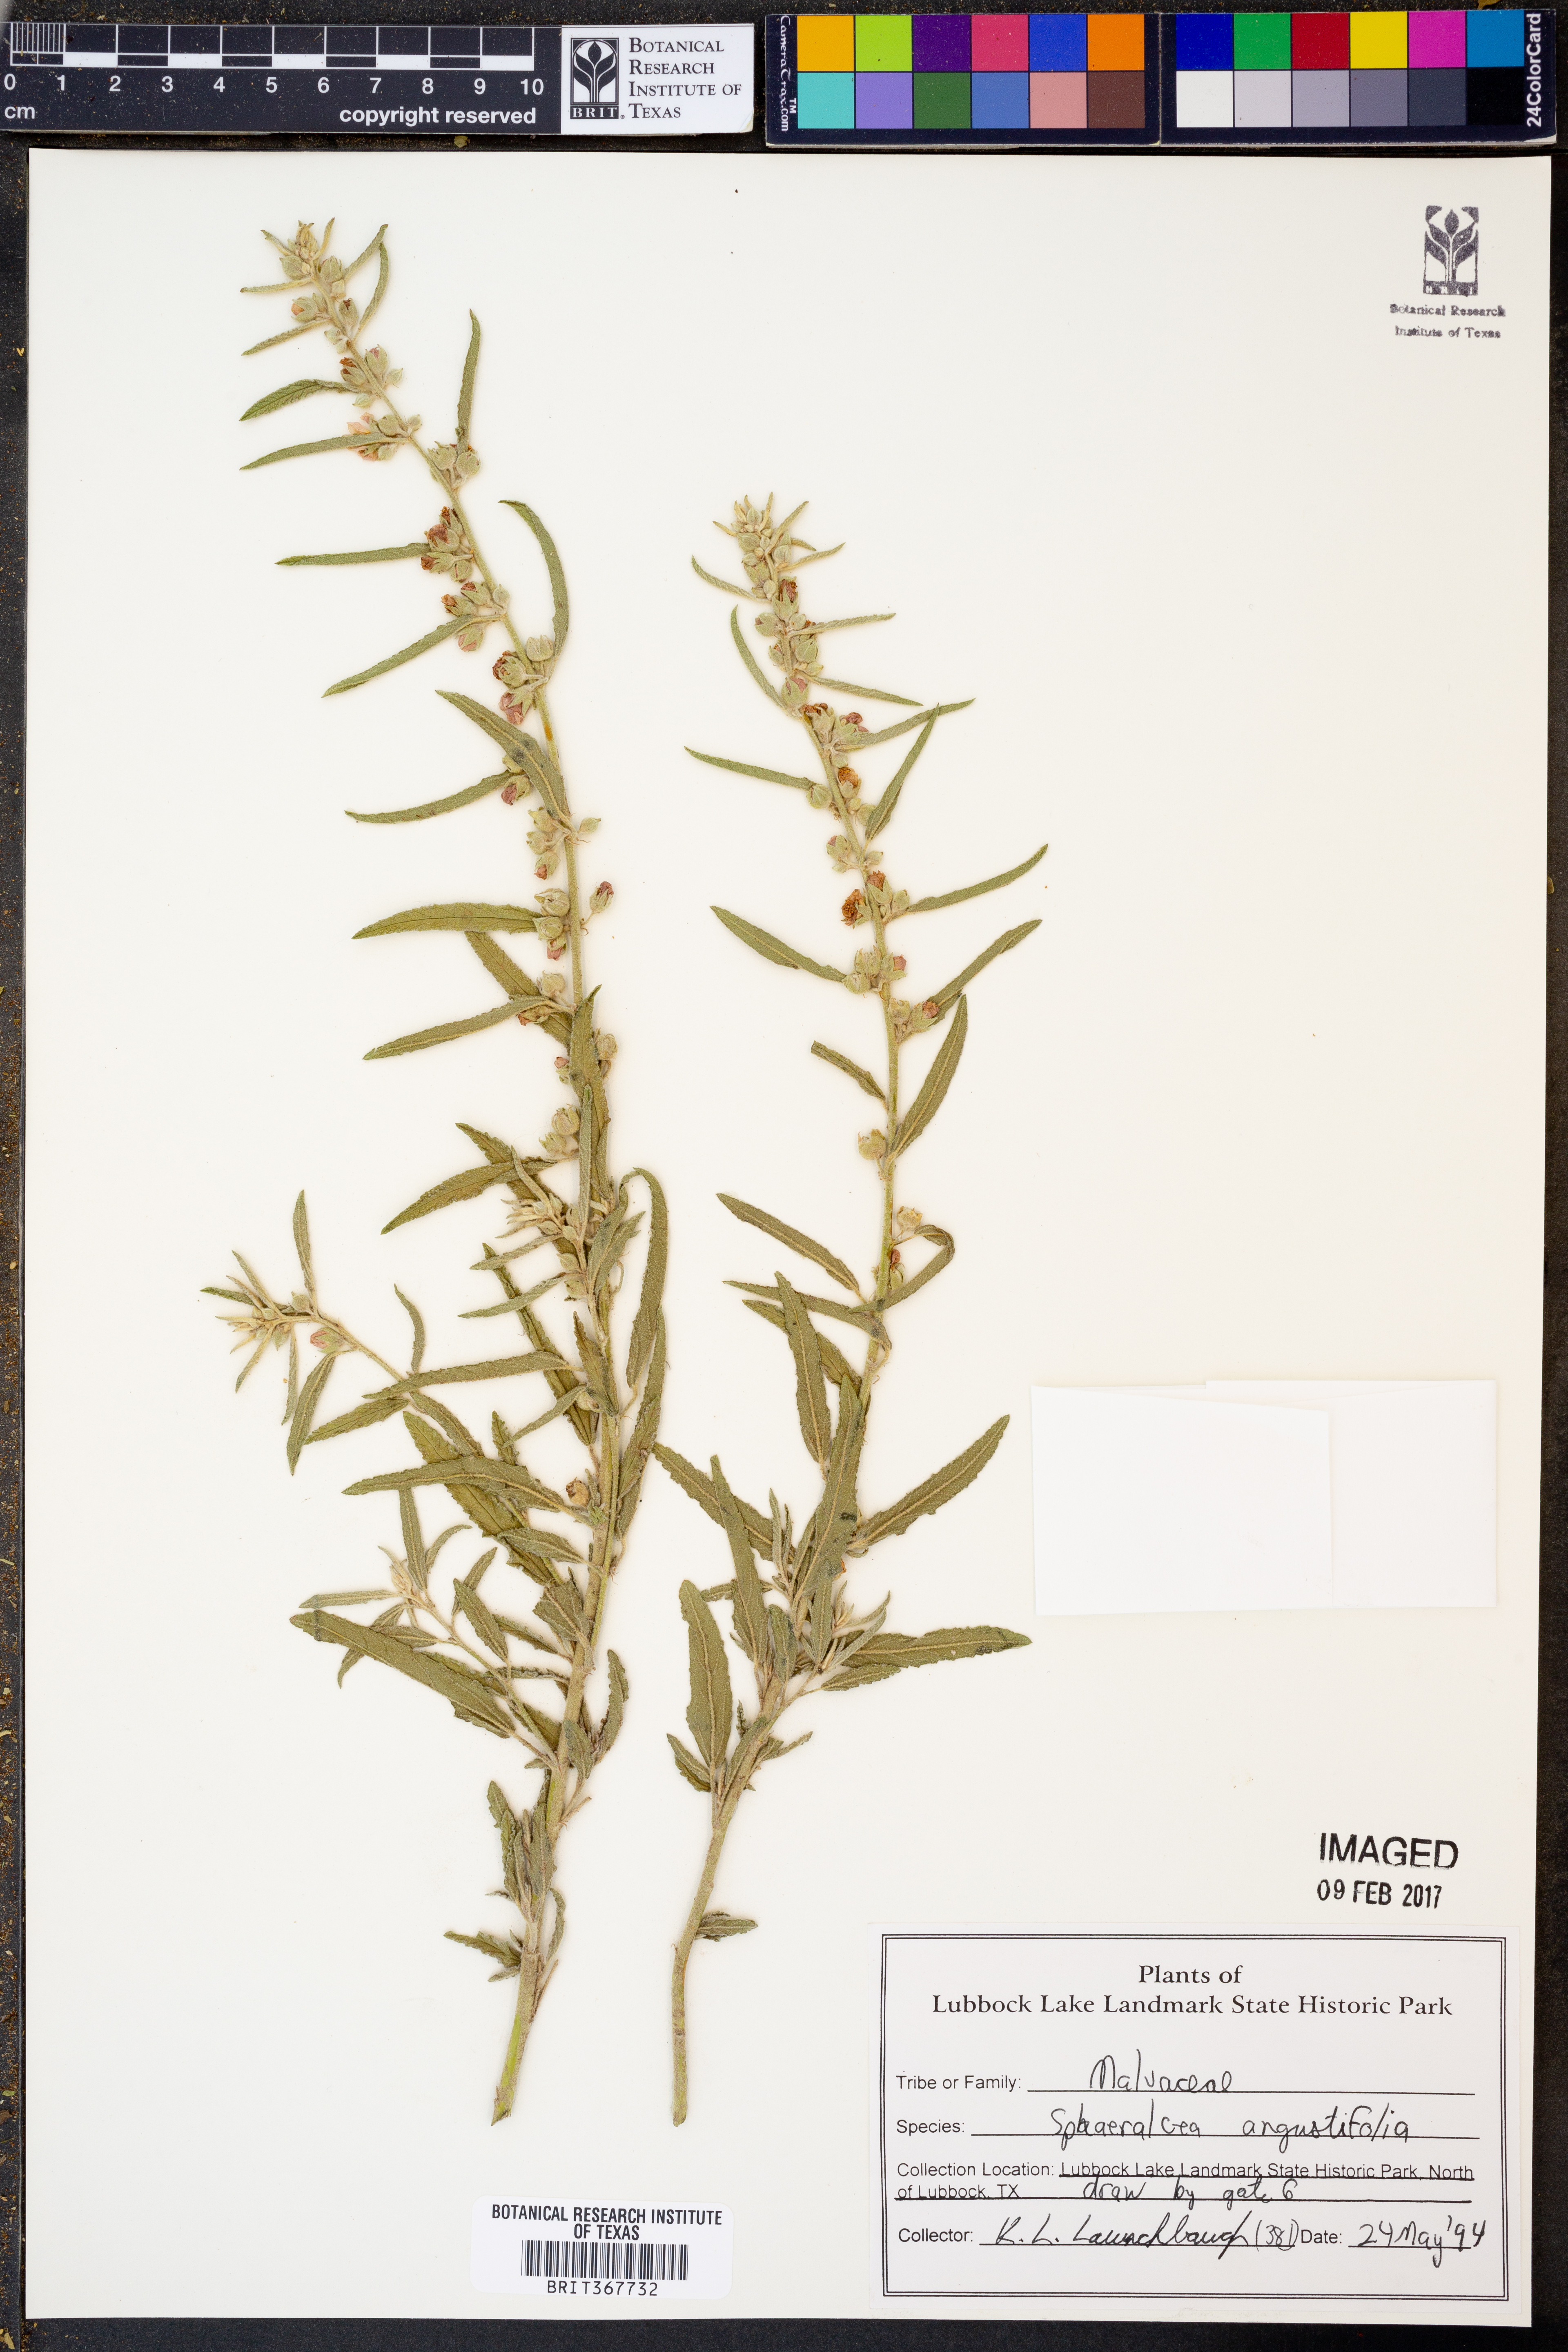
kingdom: Plantae
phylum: Tracheophyta
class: Magnoliopsida
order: Malvales
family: Malvaceae
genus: Sphaeralcea
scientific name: Sphaeralcea angustifolia
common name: Copper globe-mallow
